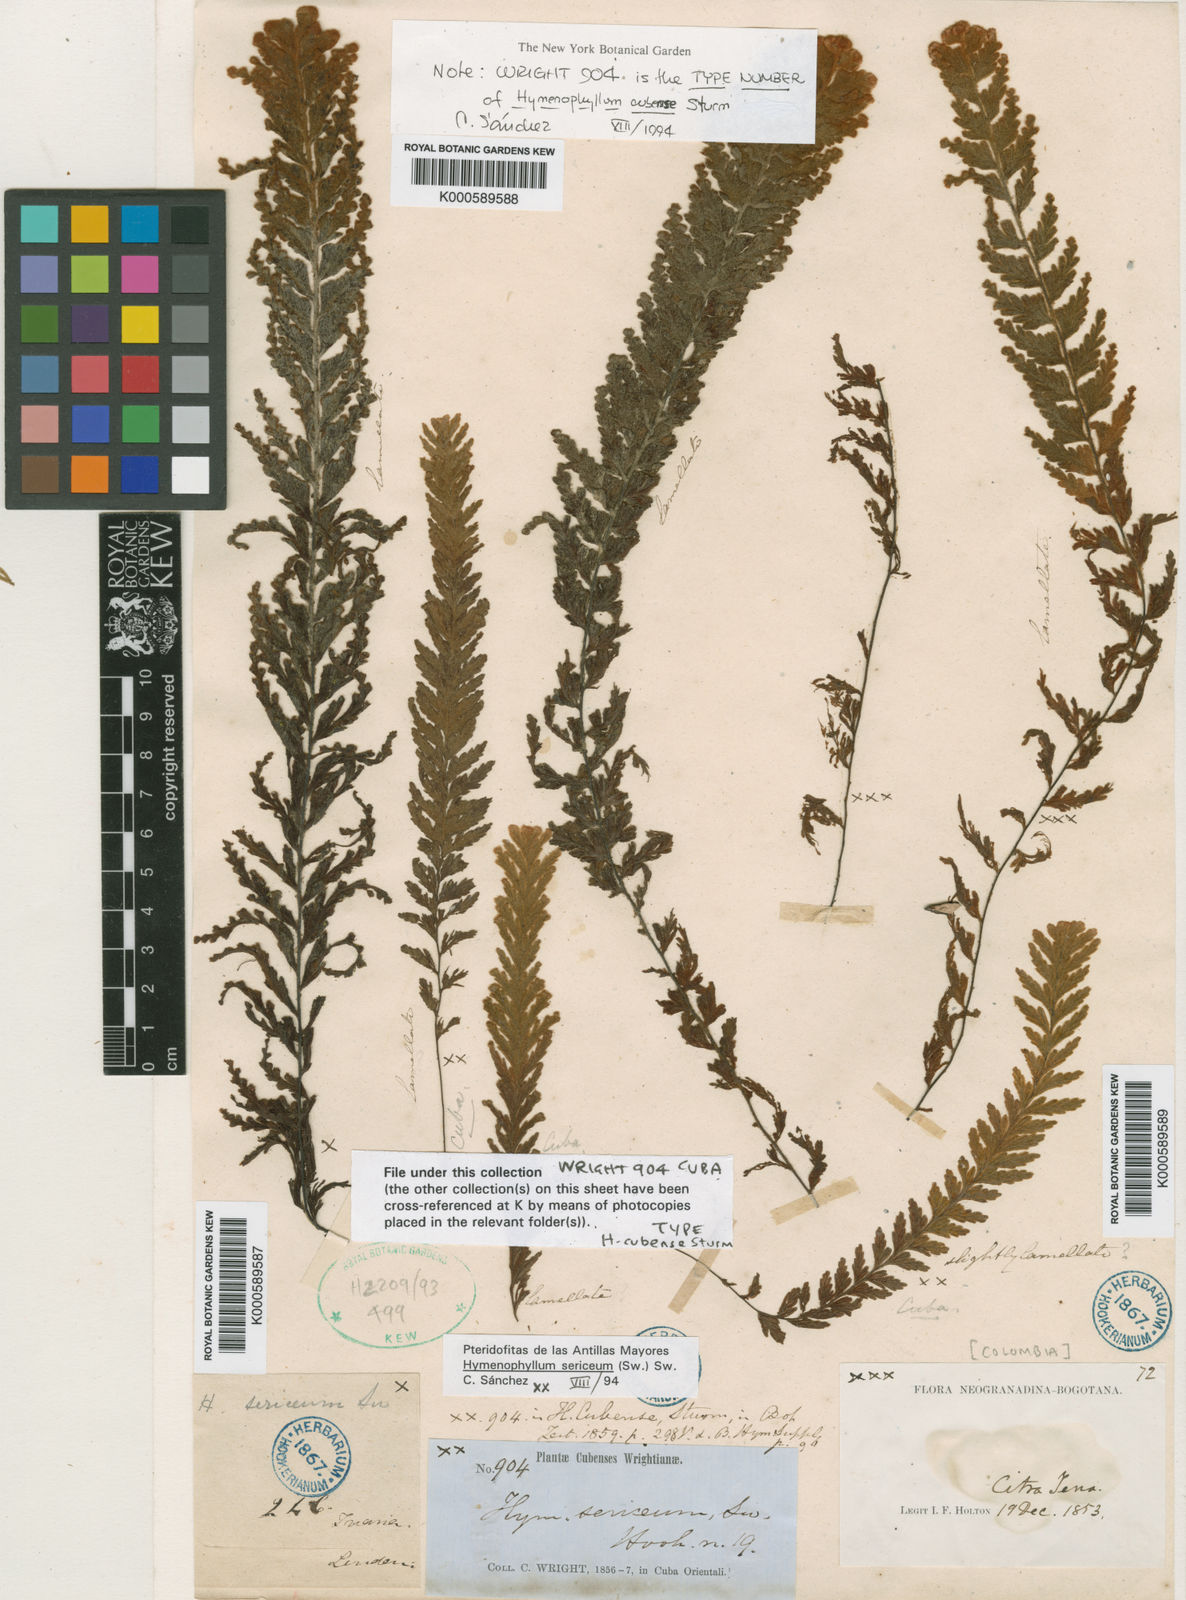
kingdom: Plantae
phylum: Tracheophyta
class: Polypodiopsida
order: Hymenophyllales
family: Hymenophyllaceae
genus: Hymenophyllum
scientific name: Hymenophyllum sericeum
